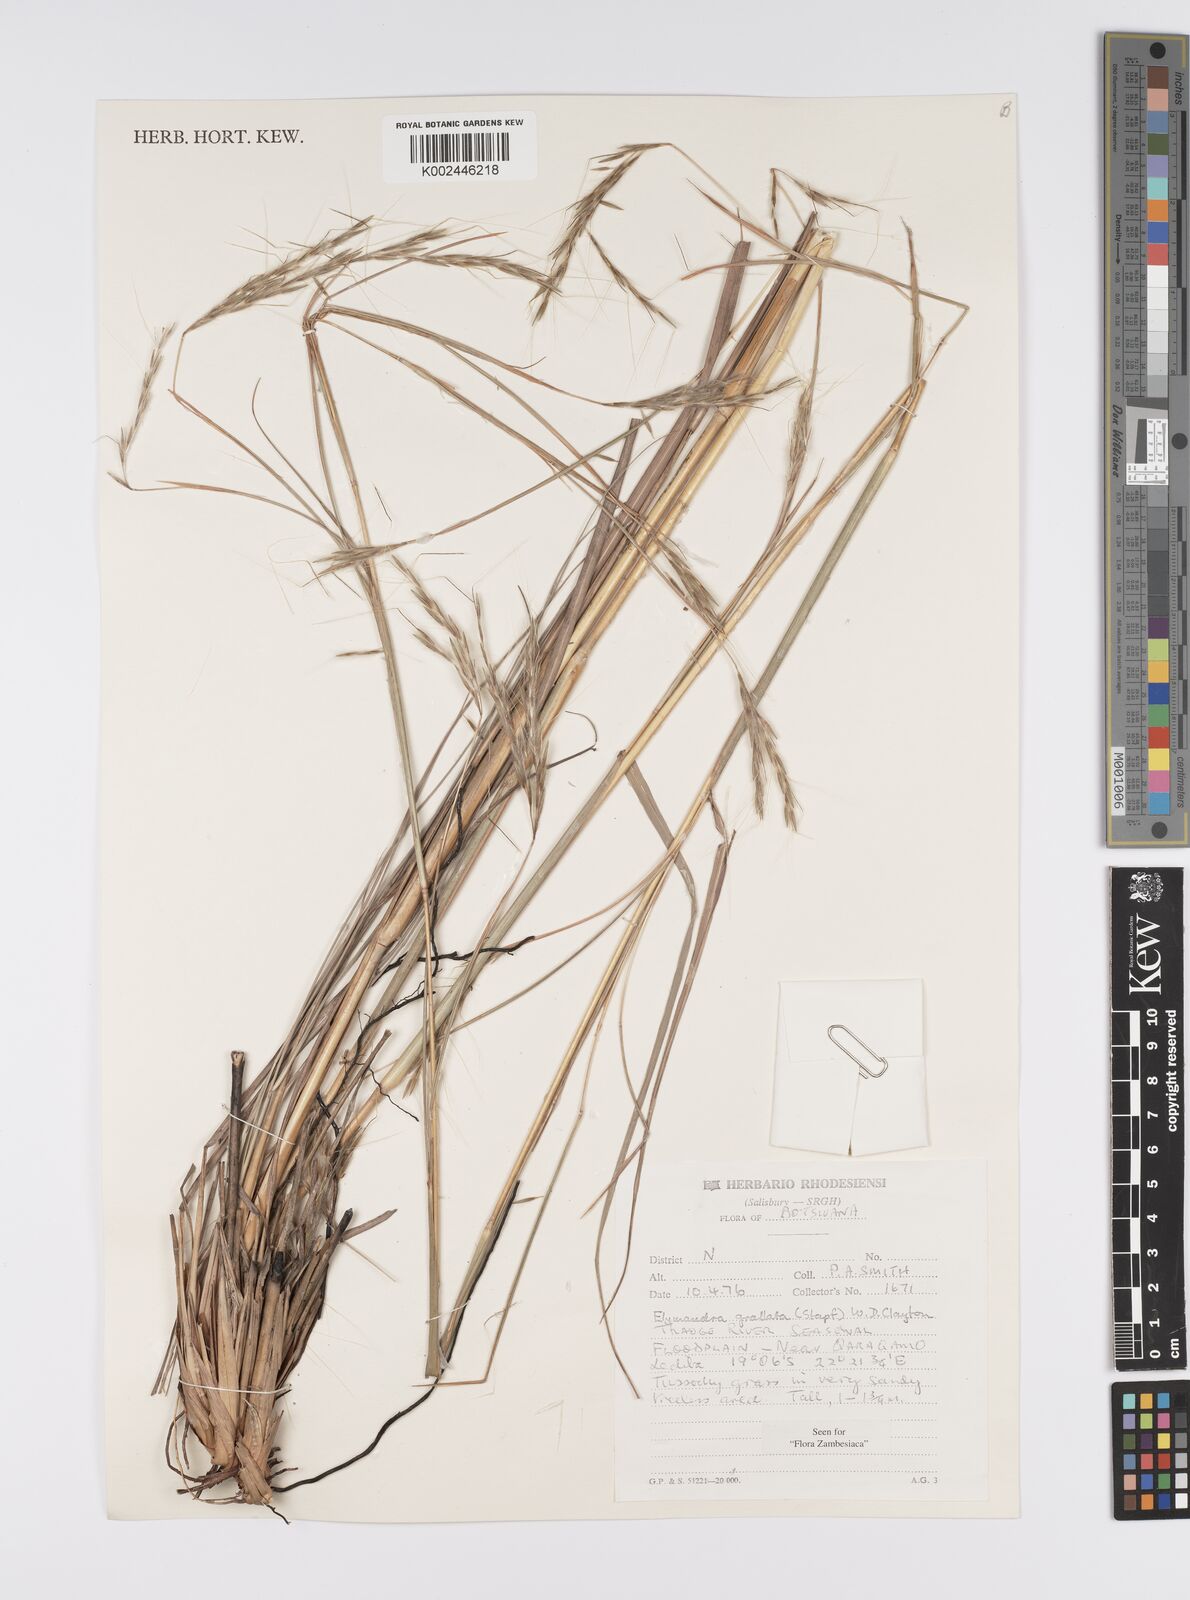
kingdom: Plantae
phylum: Tracheophyta
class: Liliopsida
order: Poales
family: Poaceae
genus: Elymandra
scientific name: Elymandra grallata
